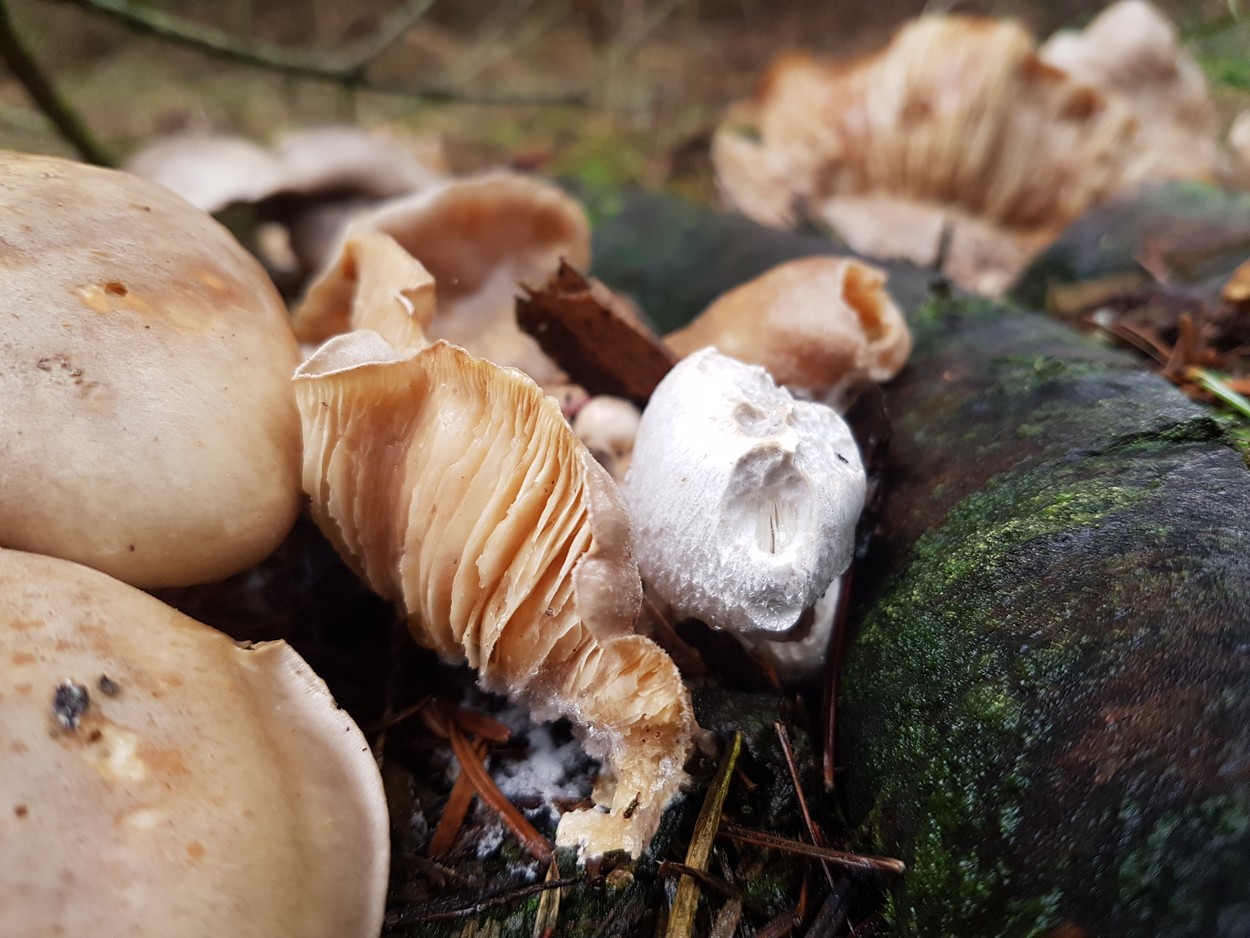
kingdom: Fungi
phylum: Basidiomycota
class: Agaricomycetes
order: Agaricales
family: Pluteaceae
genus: Volvariella
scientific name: Volvariella surrecta
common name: snyltende posesvamp
